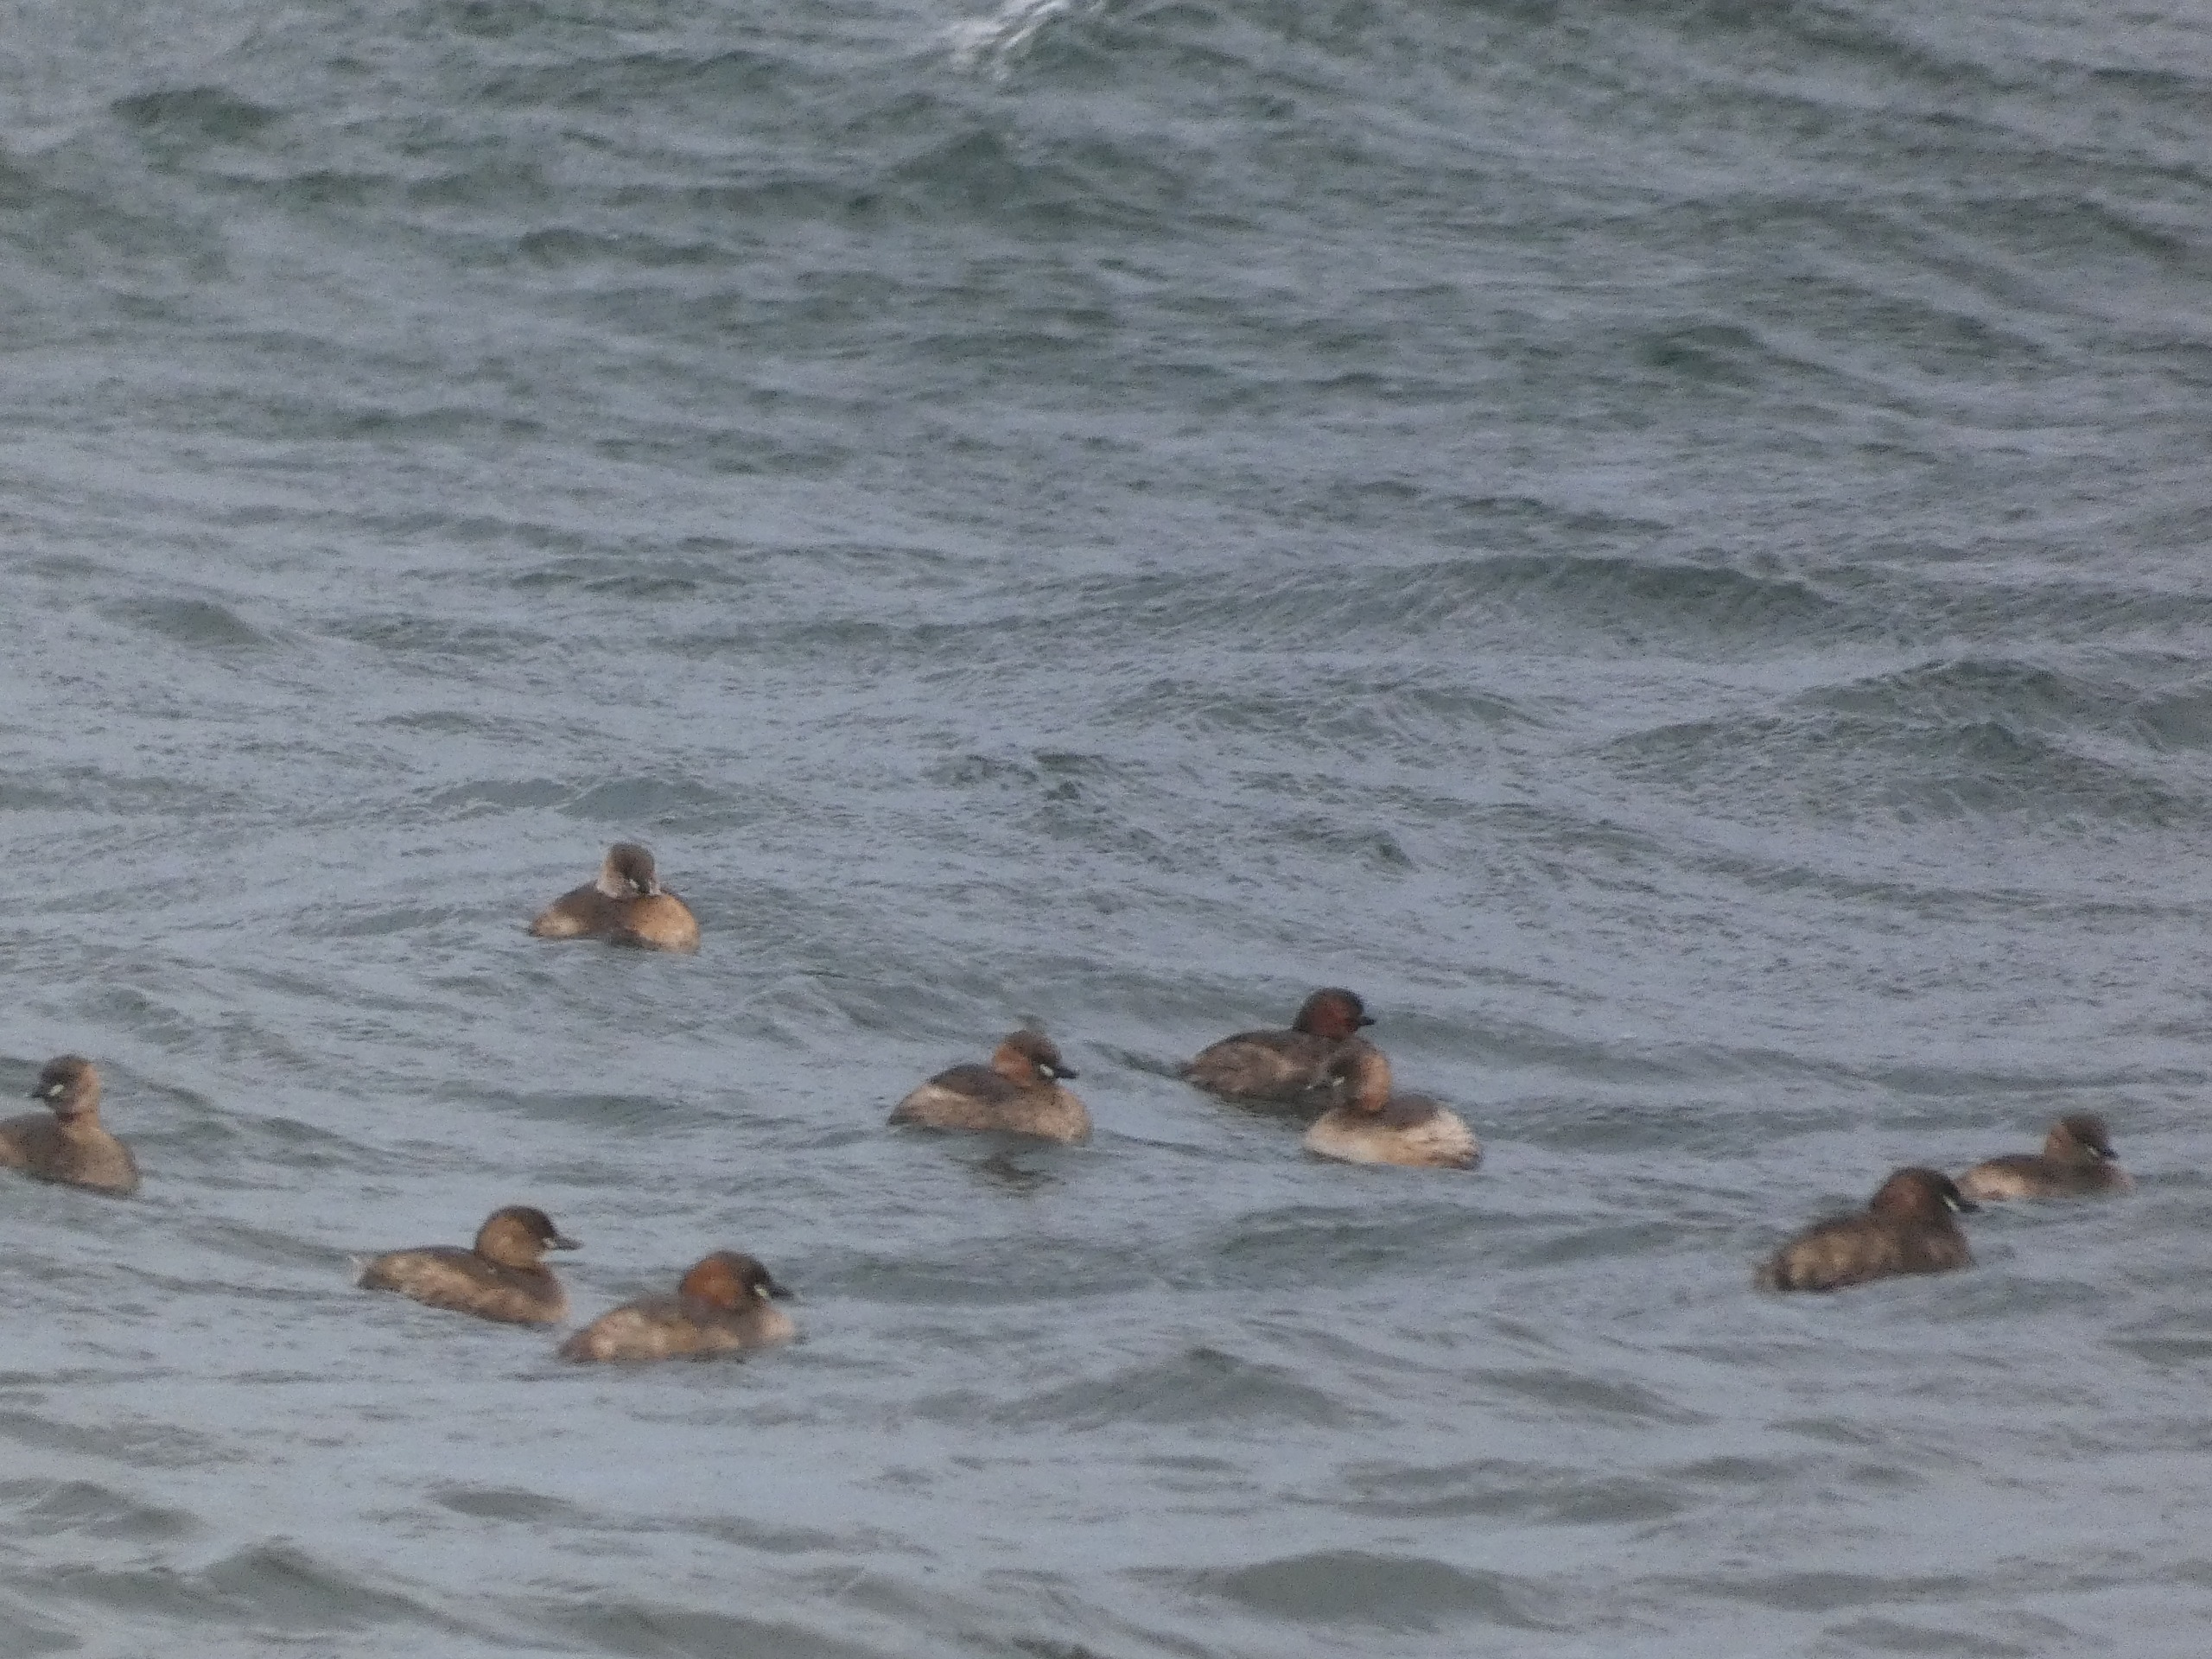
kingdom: Animalia
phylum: Chordata
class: Aves
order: Podicipediformes
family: Podicipedidae
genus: Tachybaptus
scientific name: Tachybaptus ruficollis
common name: Lille lappedykker
